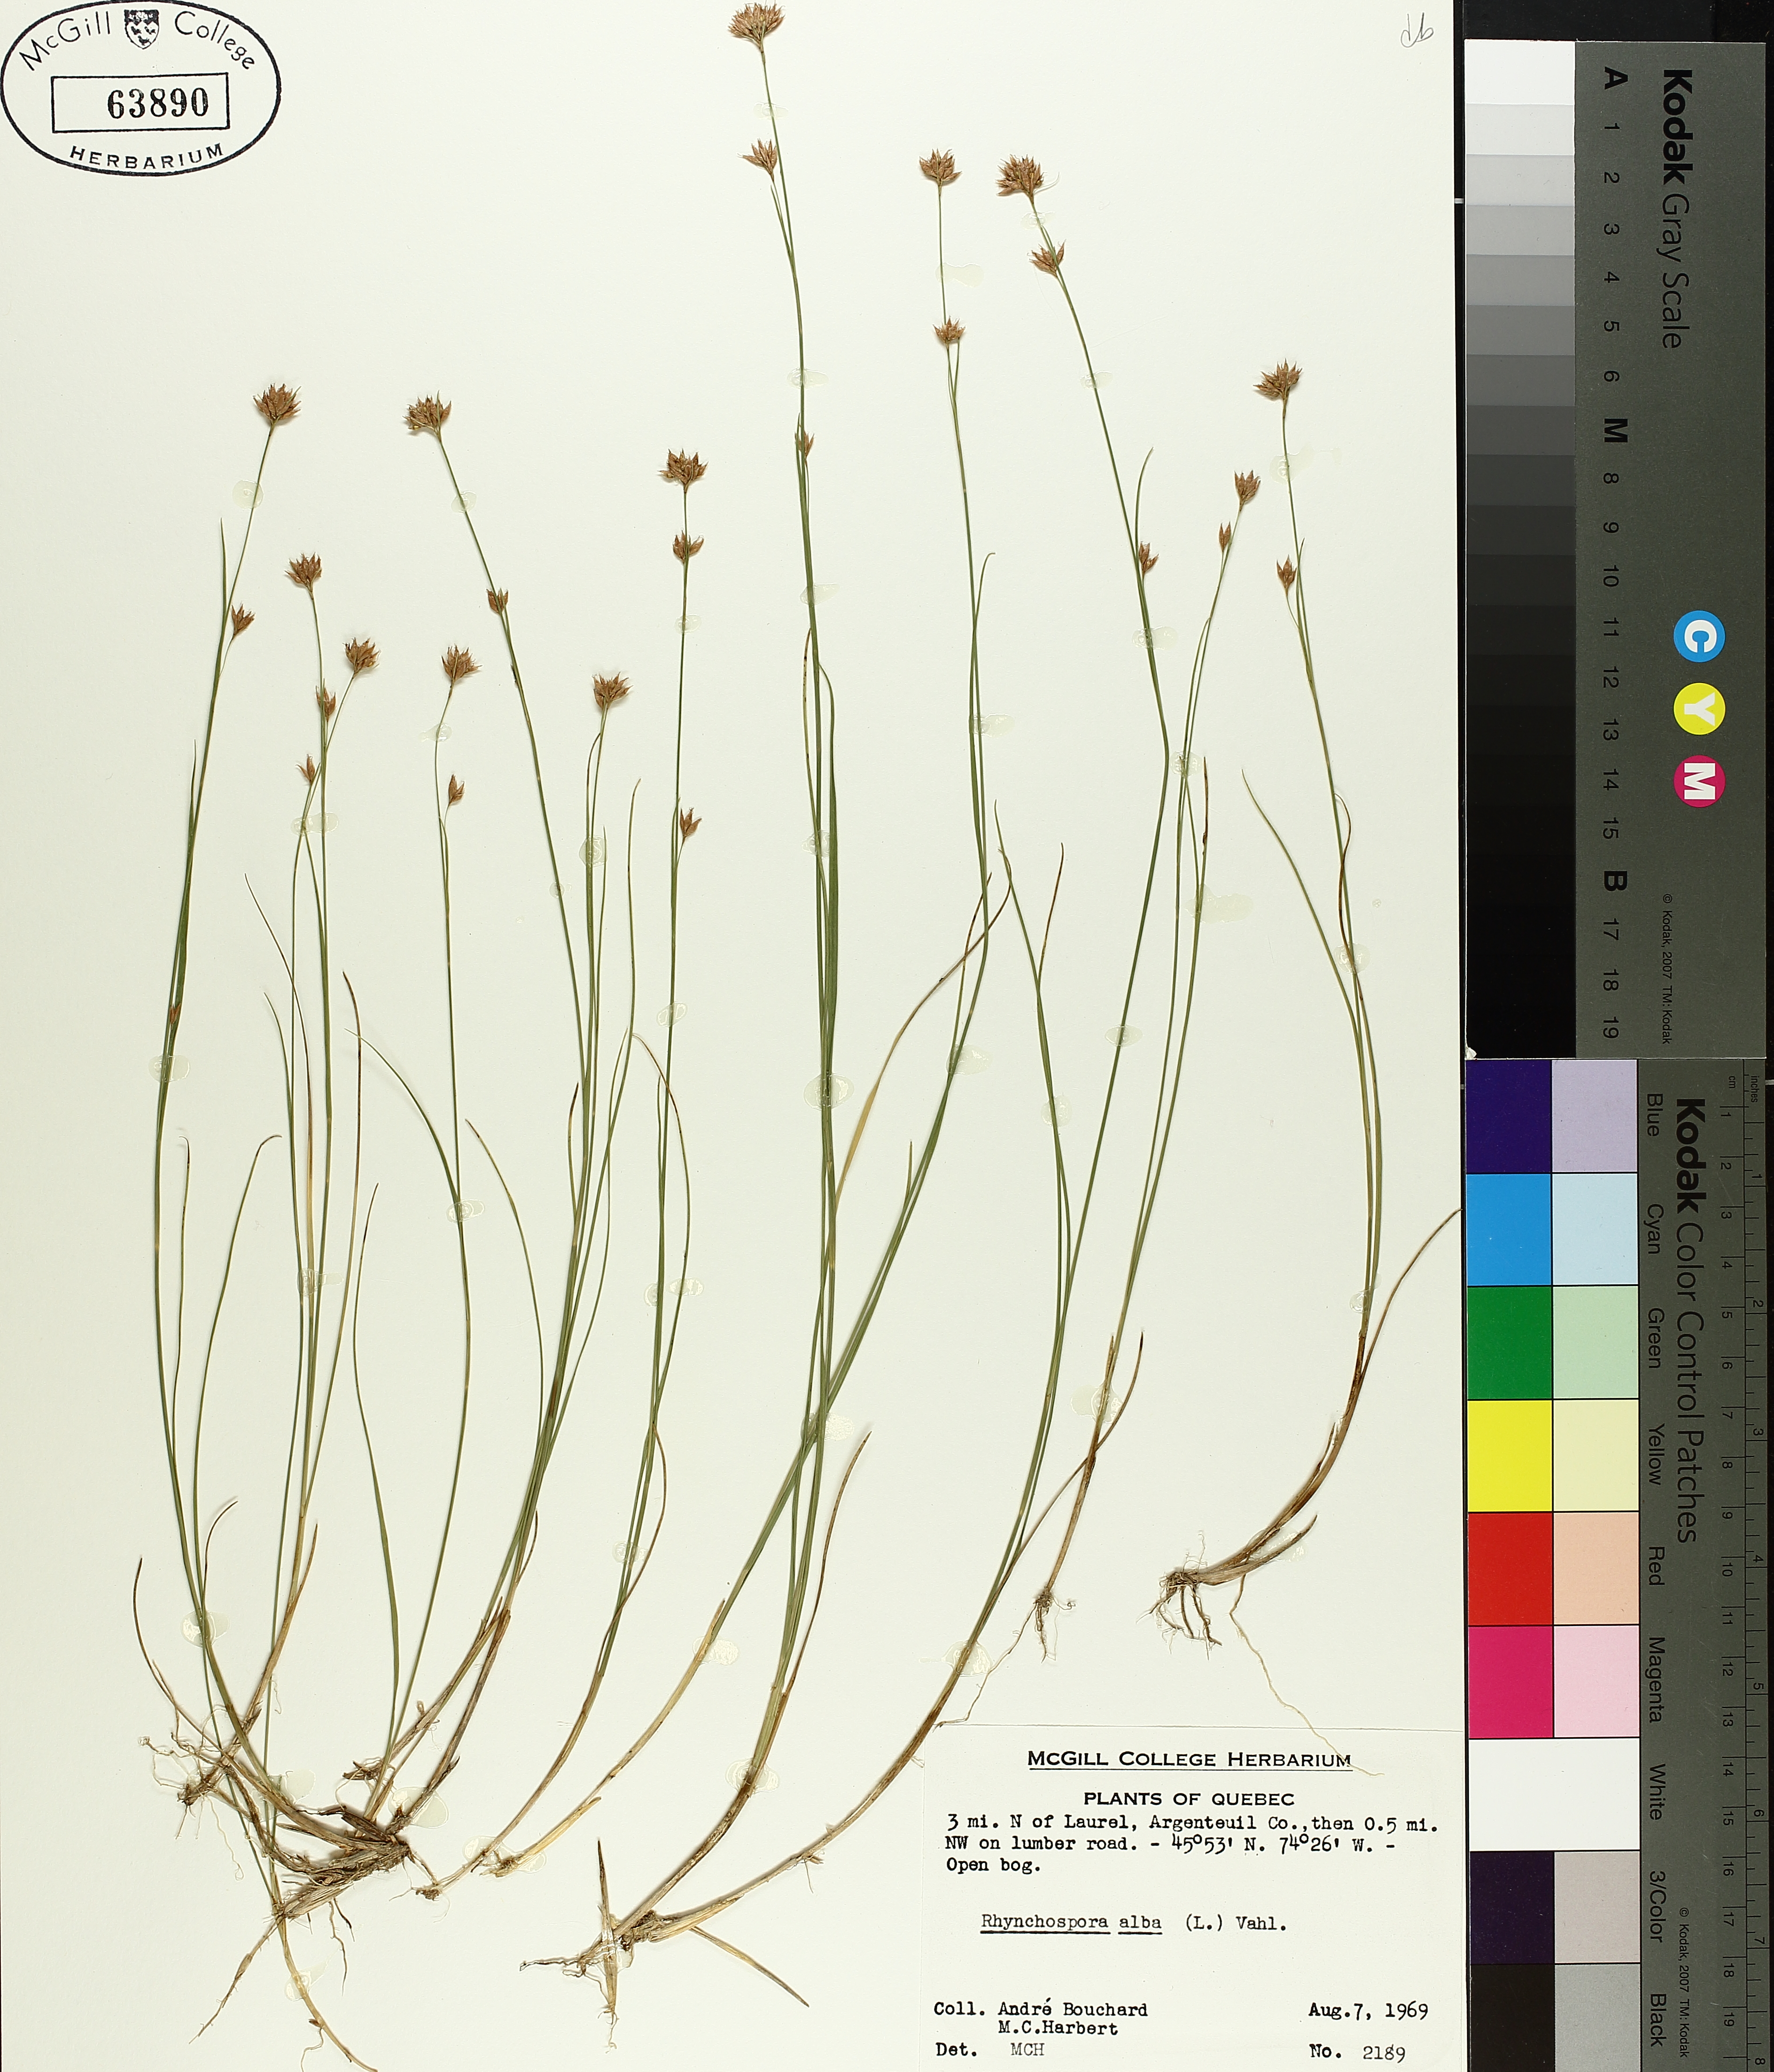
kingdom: Plantae
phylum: Tracheophyta
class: Liliopsida
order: Poales
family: Cyperaceae
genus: Rhynchospora
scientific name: Rhynchospora alba
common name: White beak-sedge
